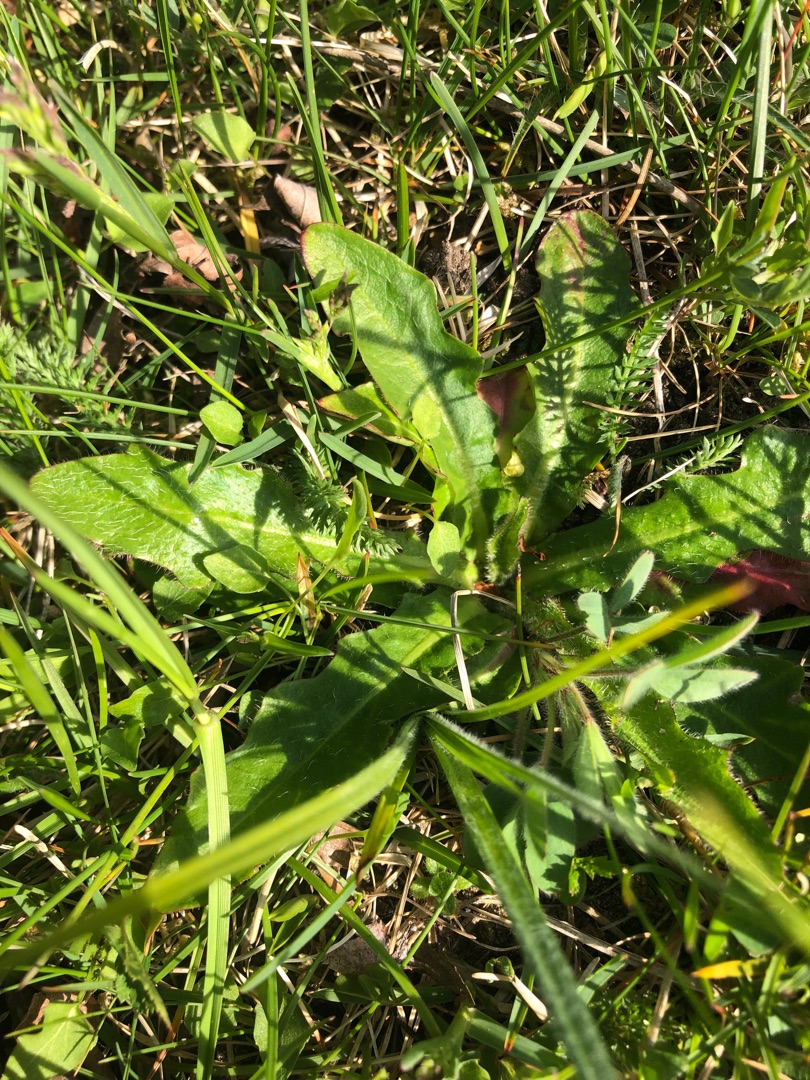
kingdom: Plantae
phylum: Tracheophyta
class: Magnoliopsida
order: Asterales
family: Asteraceae
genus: Hypochaeris
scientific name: Hypochaeris radicata
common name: Almindelig kongepen
